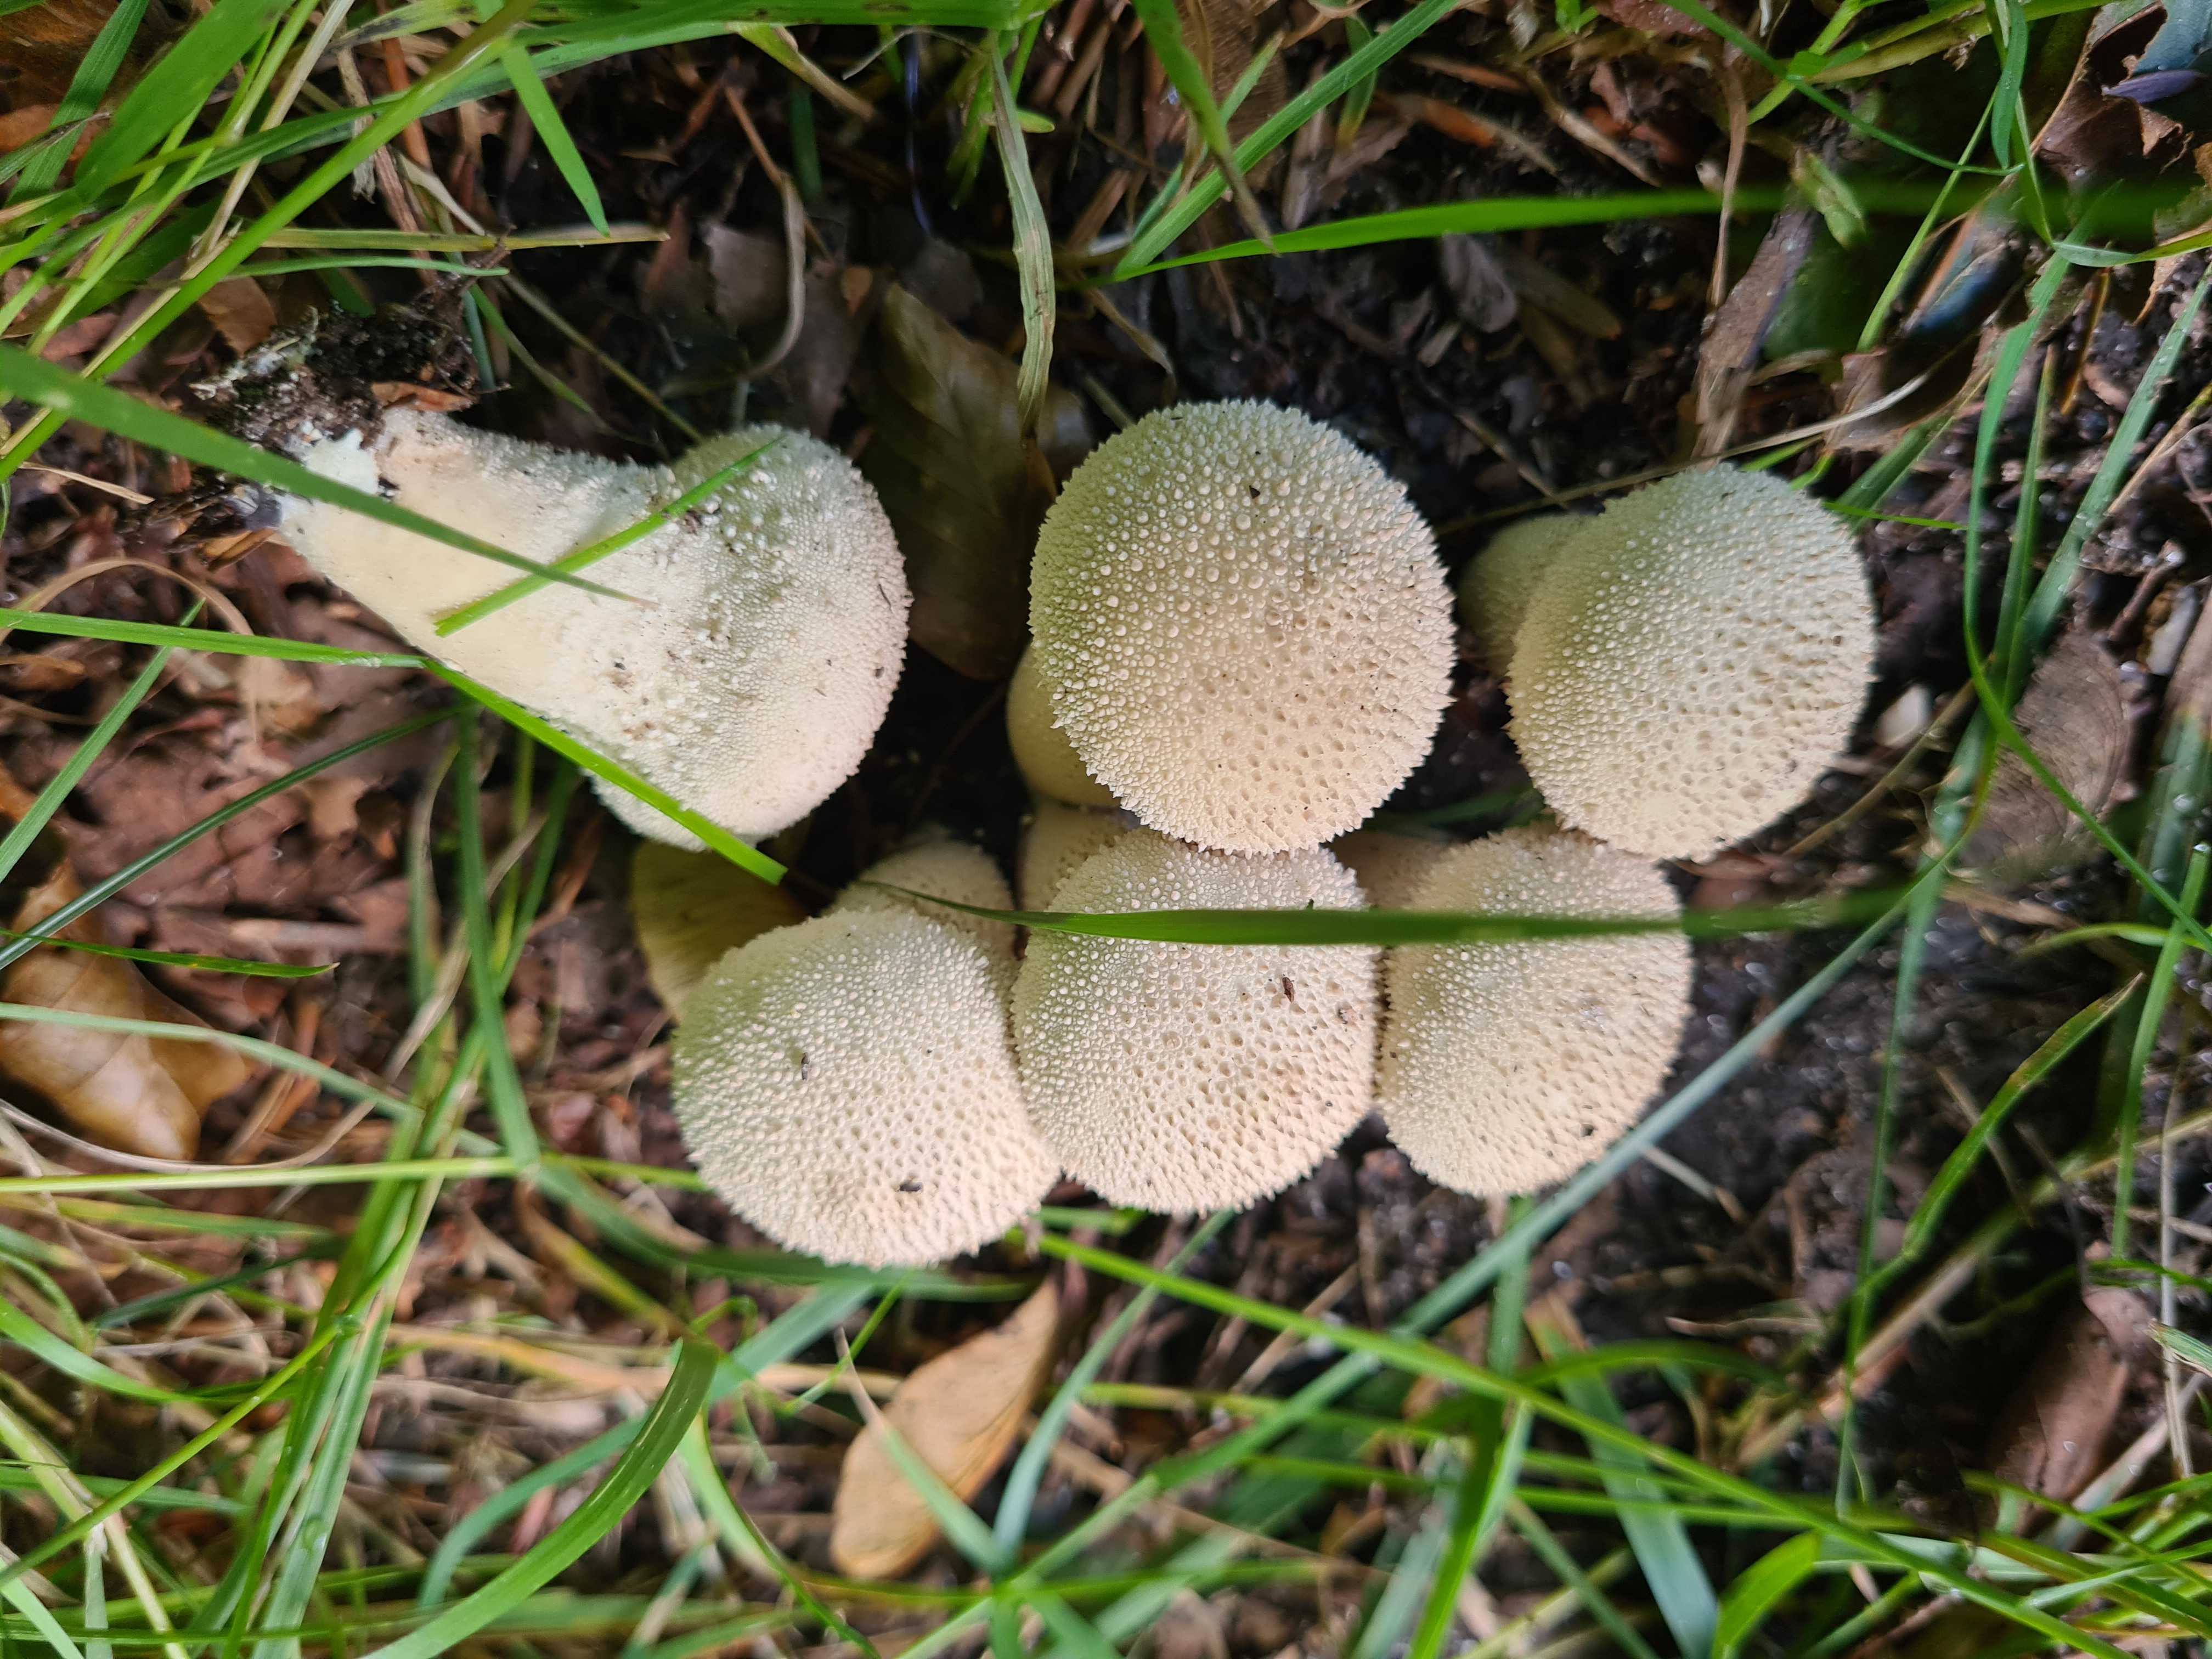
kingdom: Fungi
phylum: Basidiomycota
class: Agaricomycetes
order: Agaricales
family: Lycoperdaceae
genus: Lycoperdon
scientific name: Lycoperdon perlatum
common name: krystal-støvbold
